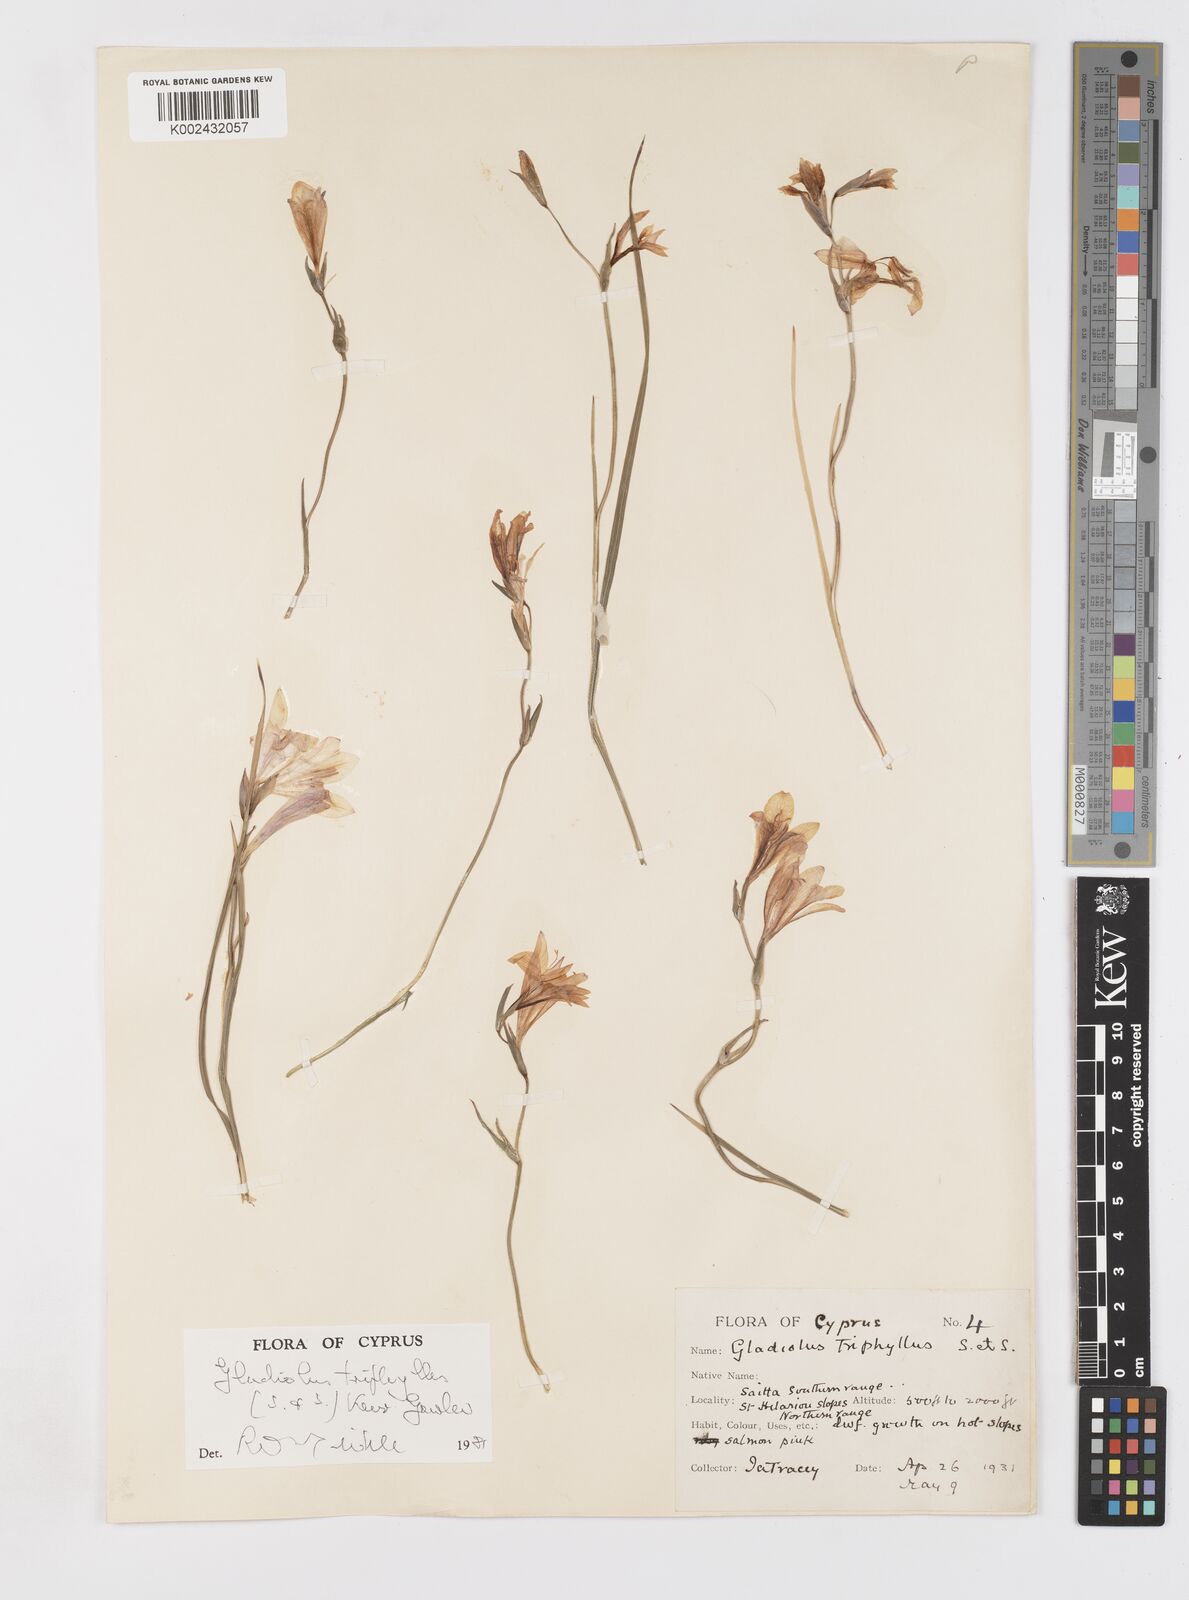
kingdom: Plantae
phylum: Tracheophyta
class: Liliopsida
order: Asparagales
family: Iridaceae
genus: Gladiolus
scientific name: Gladiolus triphyllus
